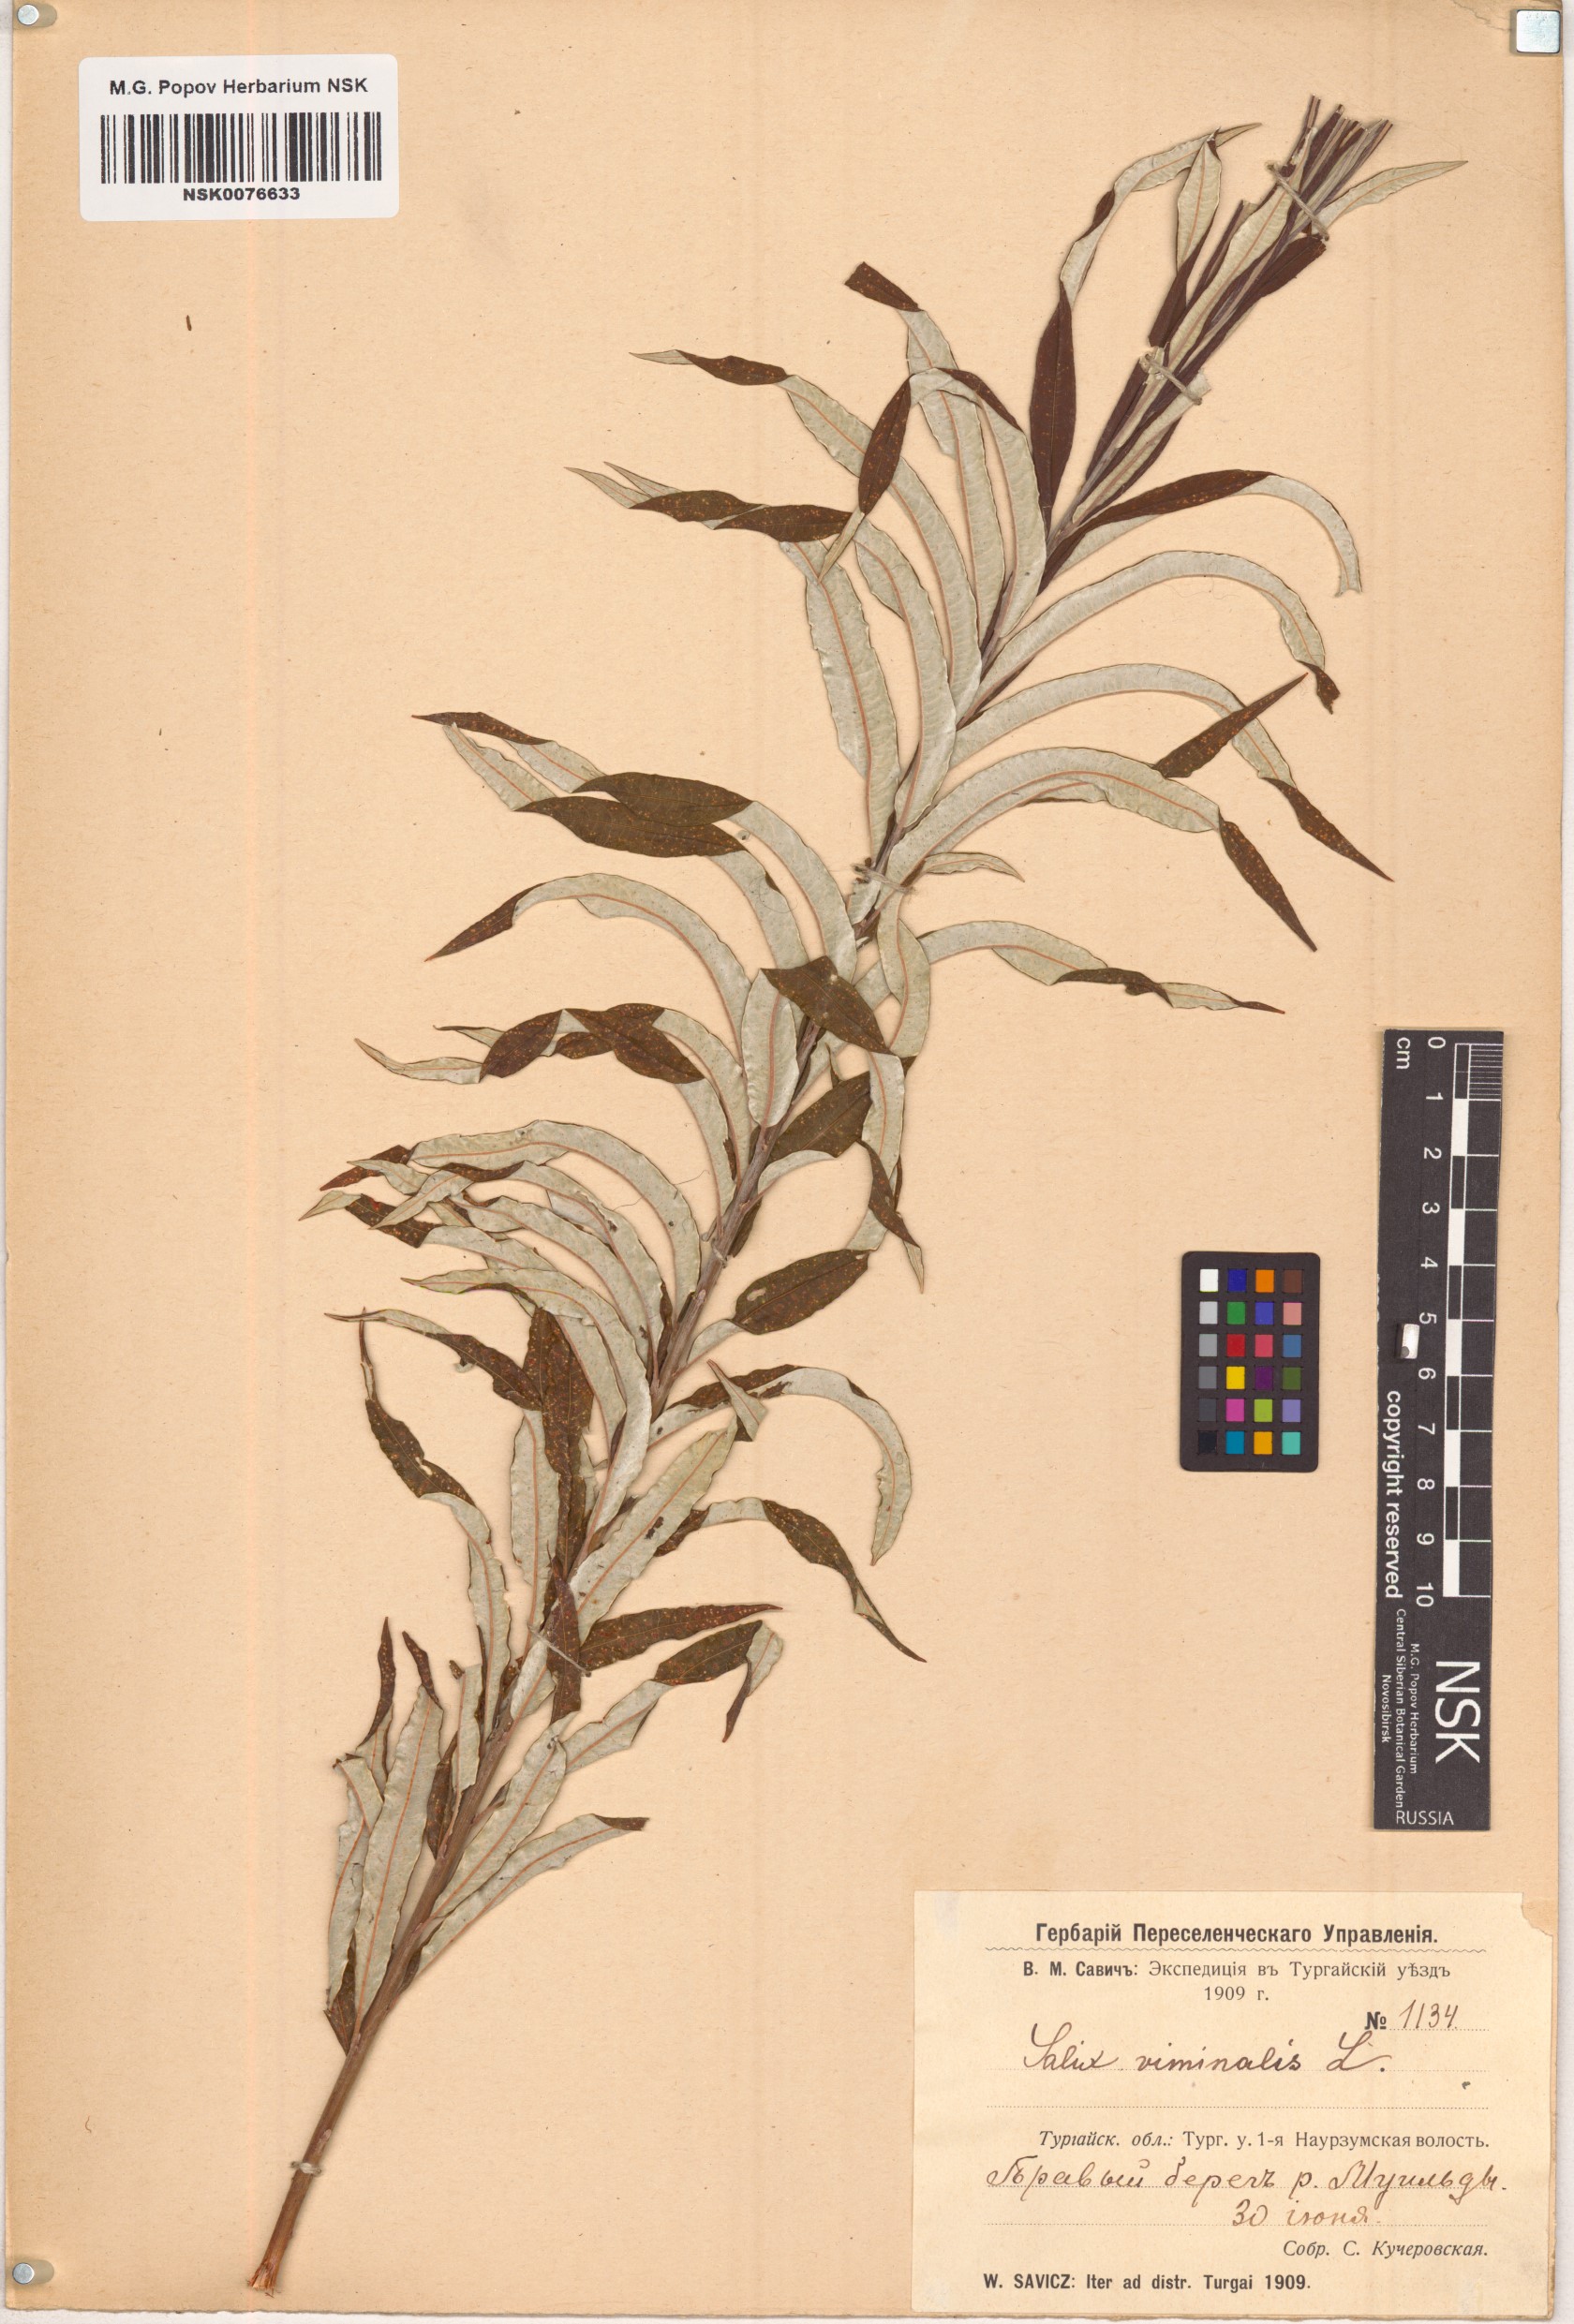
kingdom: Plantae
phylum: Tracheophyta
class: Magnoliopsida
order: Malpighiales
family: Salicaceae
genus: Salix
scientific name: Salix viminalis
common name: Osier
